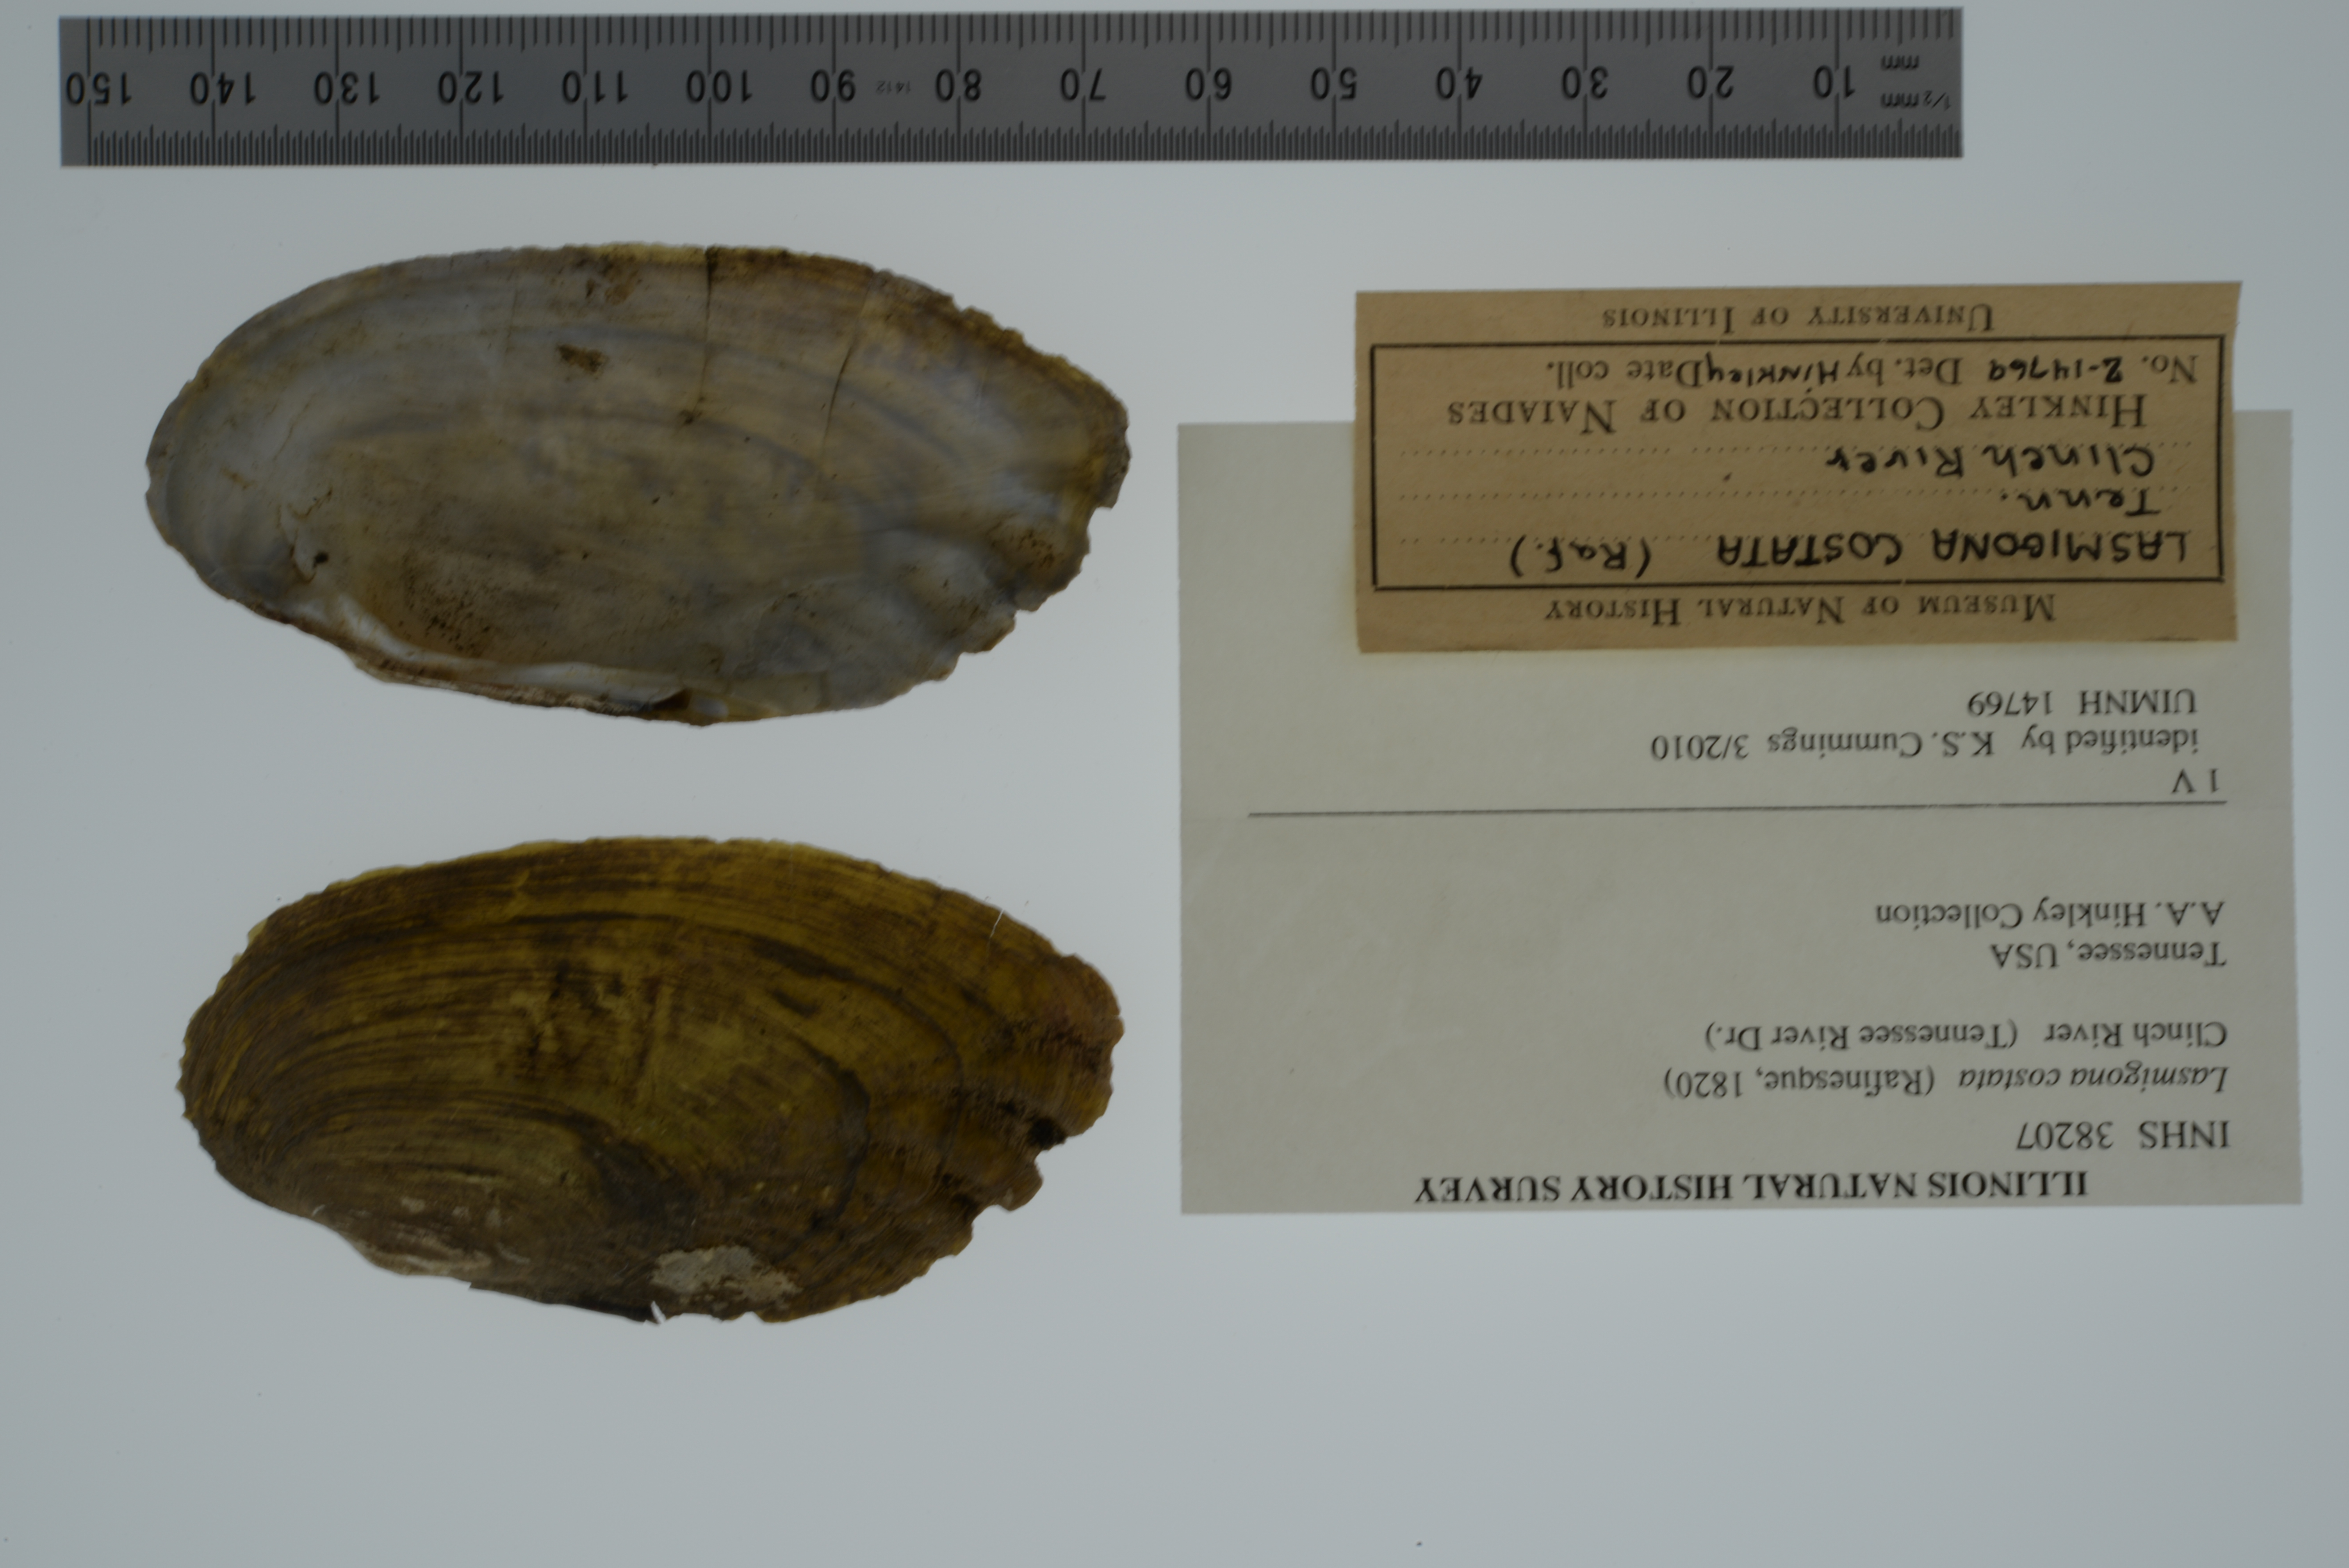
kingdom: Animalia
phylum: Mollusca
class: Bivalvia
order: Unionida
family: Unionidae
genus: Lasmigona
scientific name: Lasmigona costata
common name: Flutedshell
